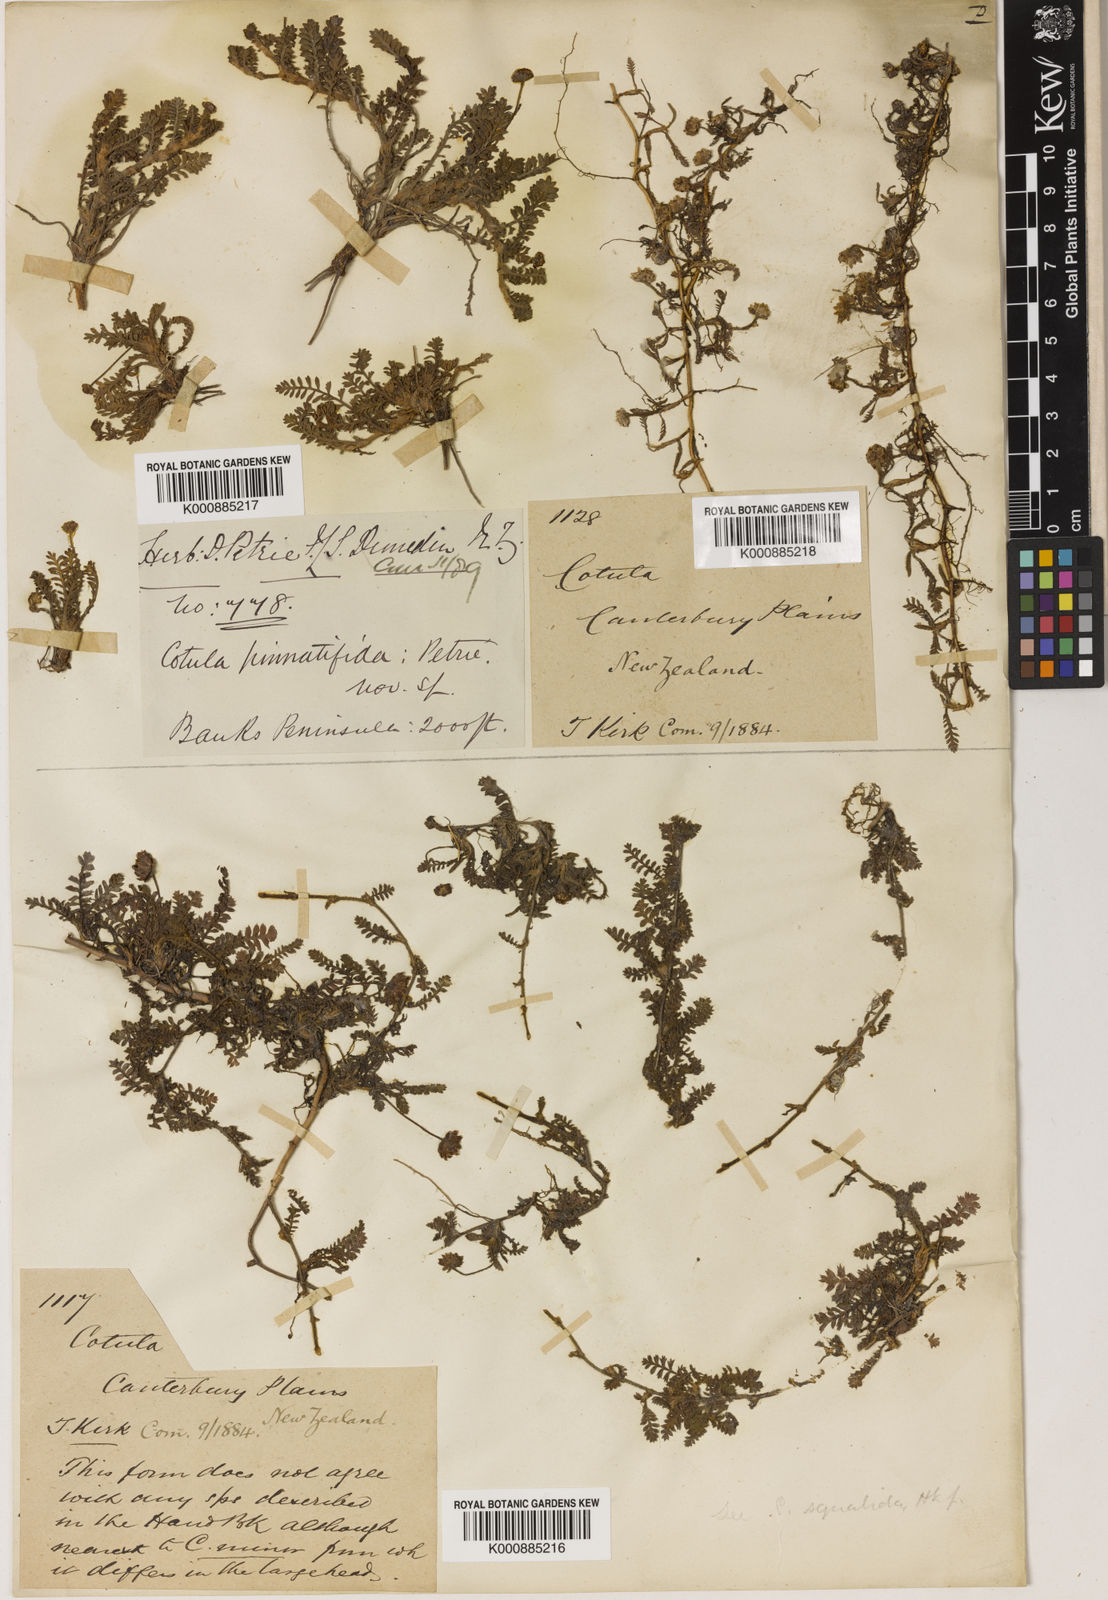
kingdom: Plantae
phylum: Tracheophyta
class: Magnoliopsida
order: Asterales
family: Asteraceae
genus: Leptinella
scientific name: Leptinella
